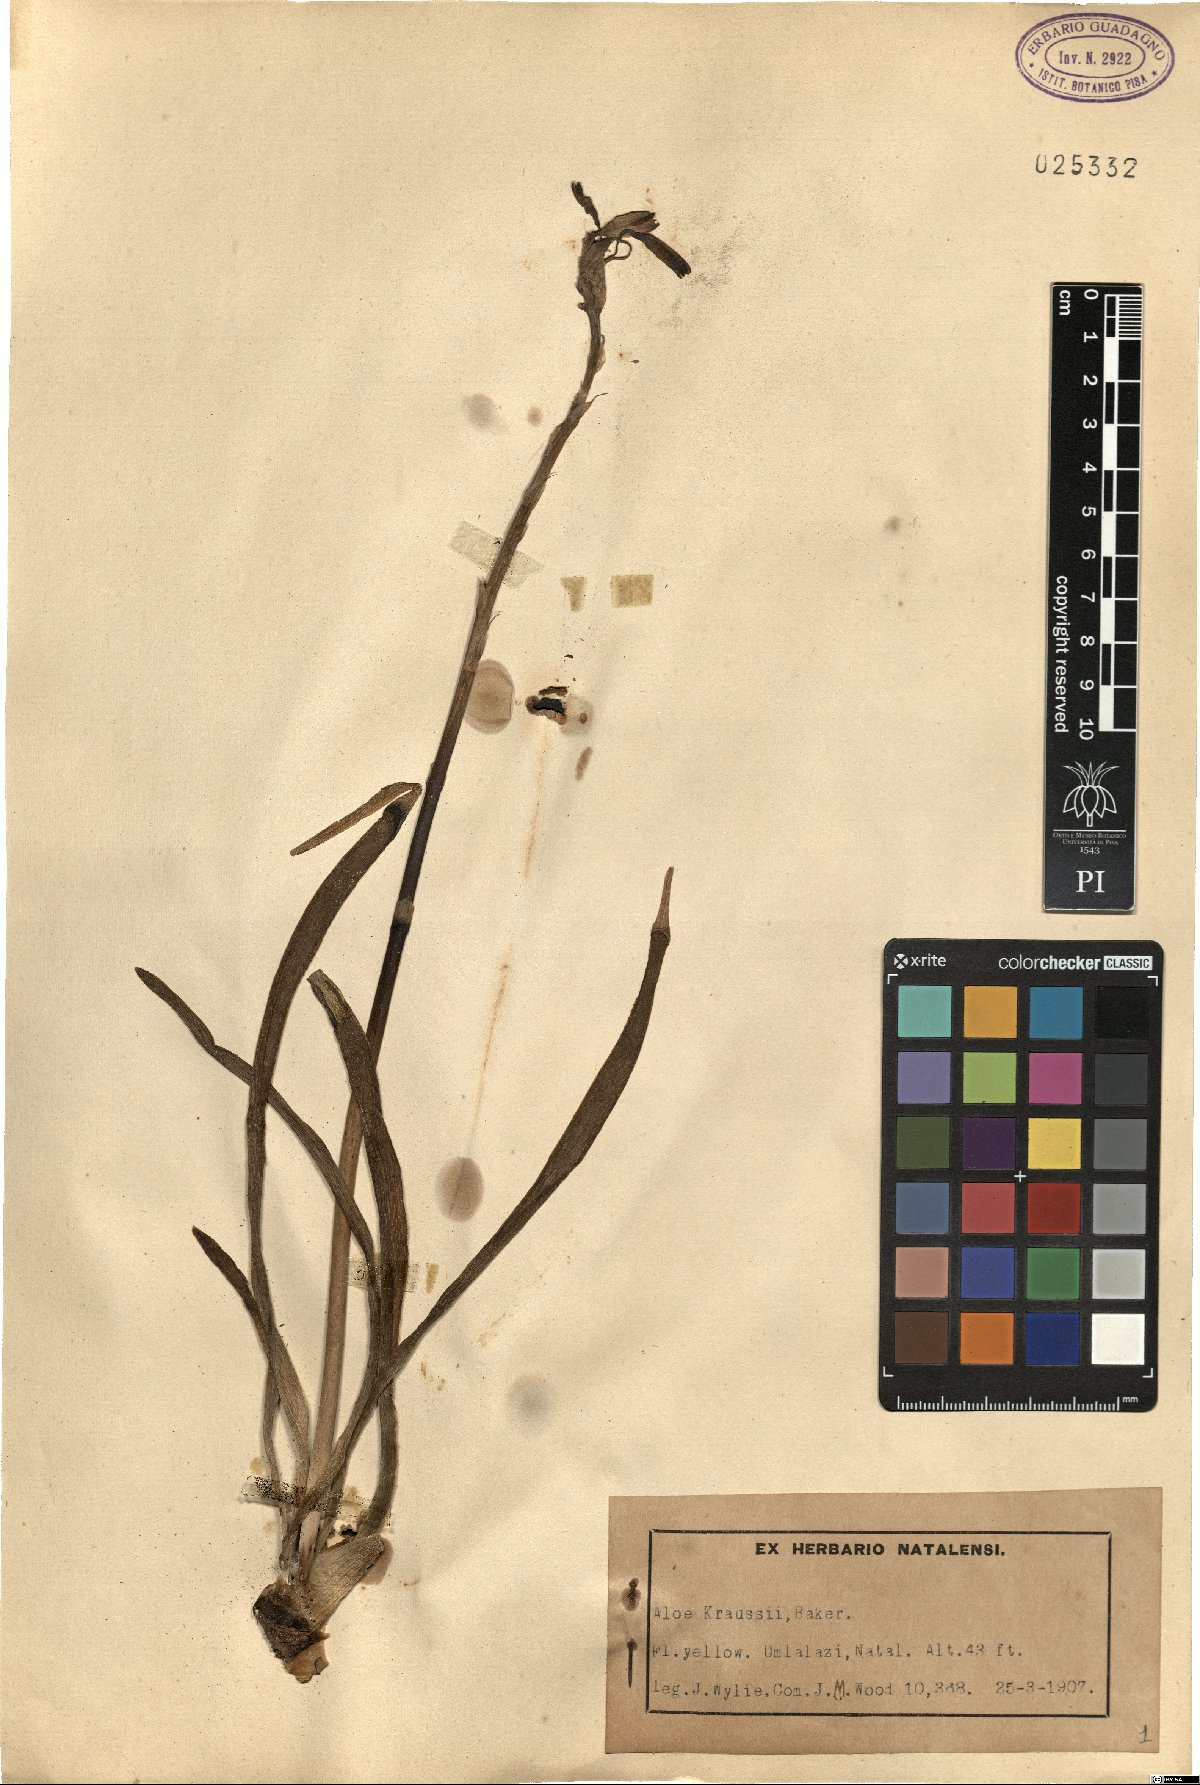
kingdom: Plantae
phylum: Tracheophyta
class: Liliopsida
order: Asparagales
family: Asphodelaceae
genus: Aloe
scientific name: Aloe kraussii
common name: Broad-leaved yellow grass aloe
